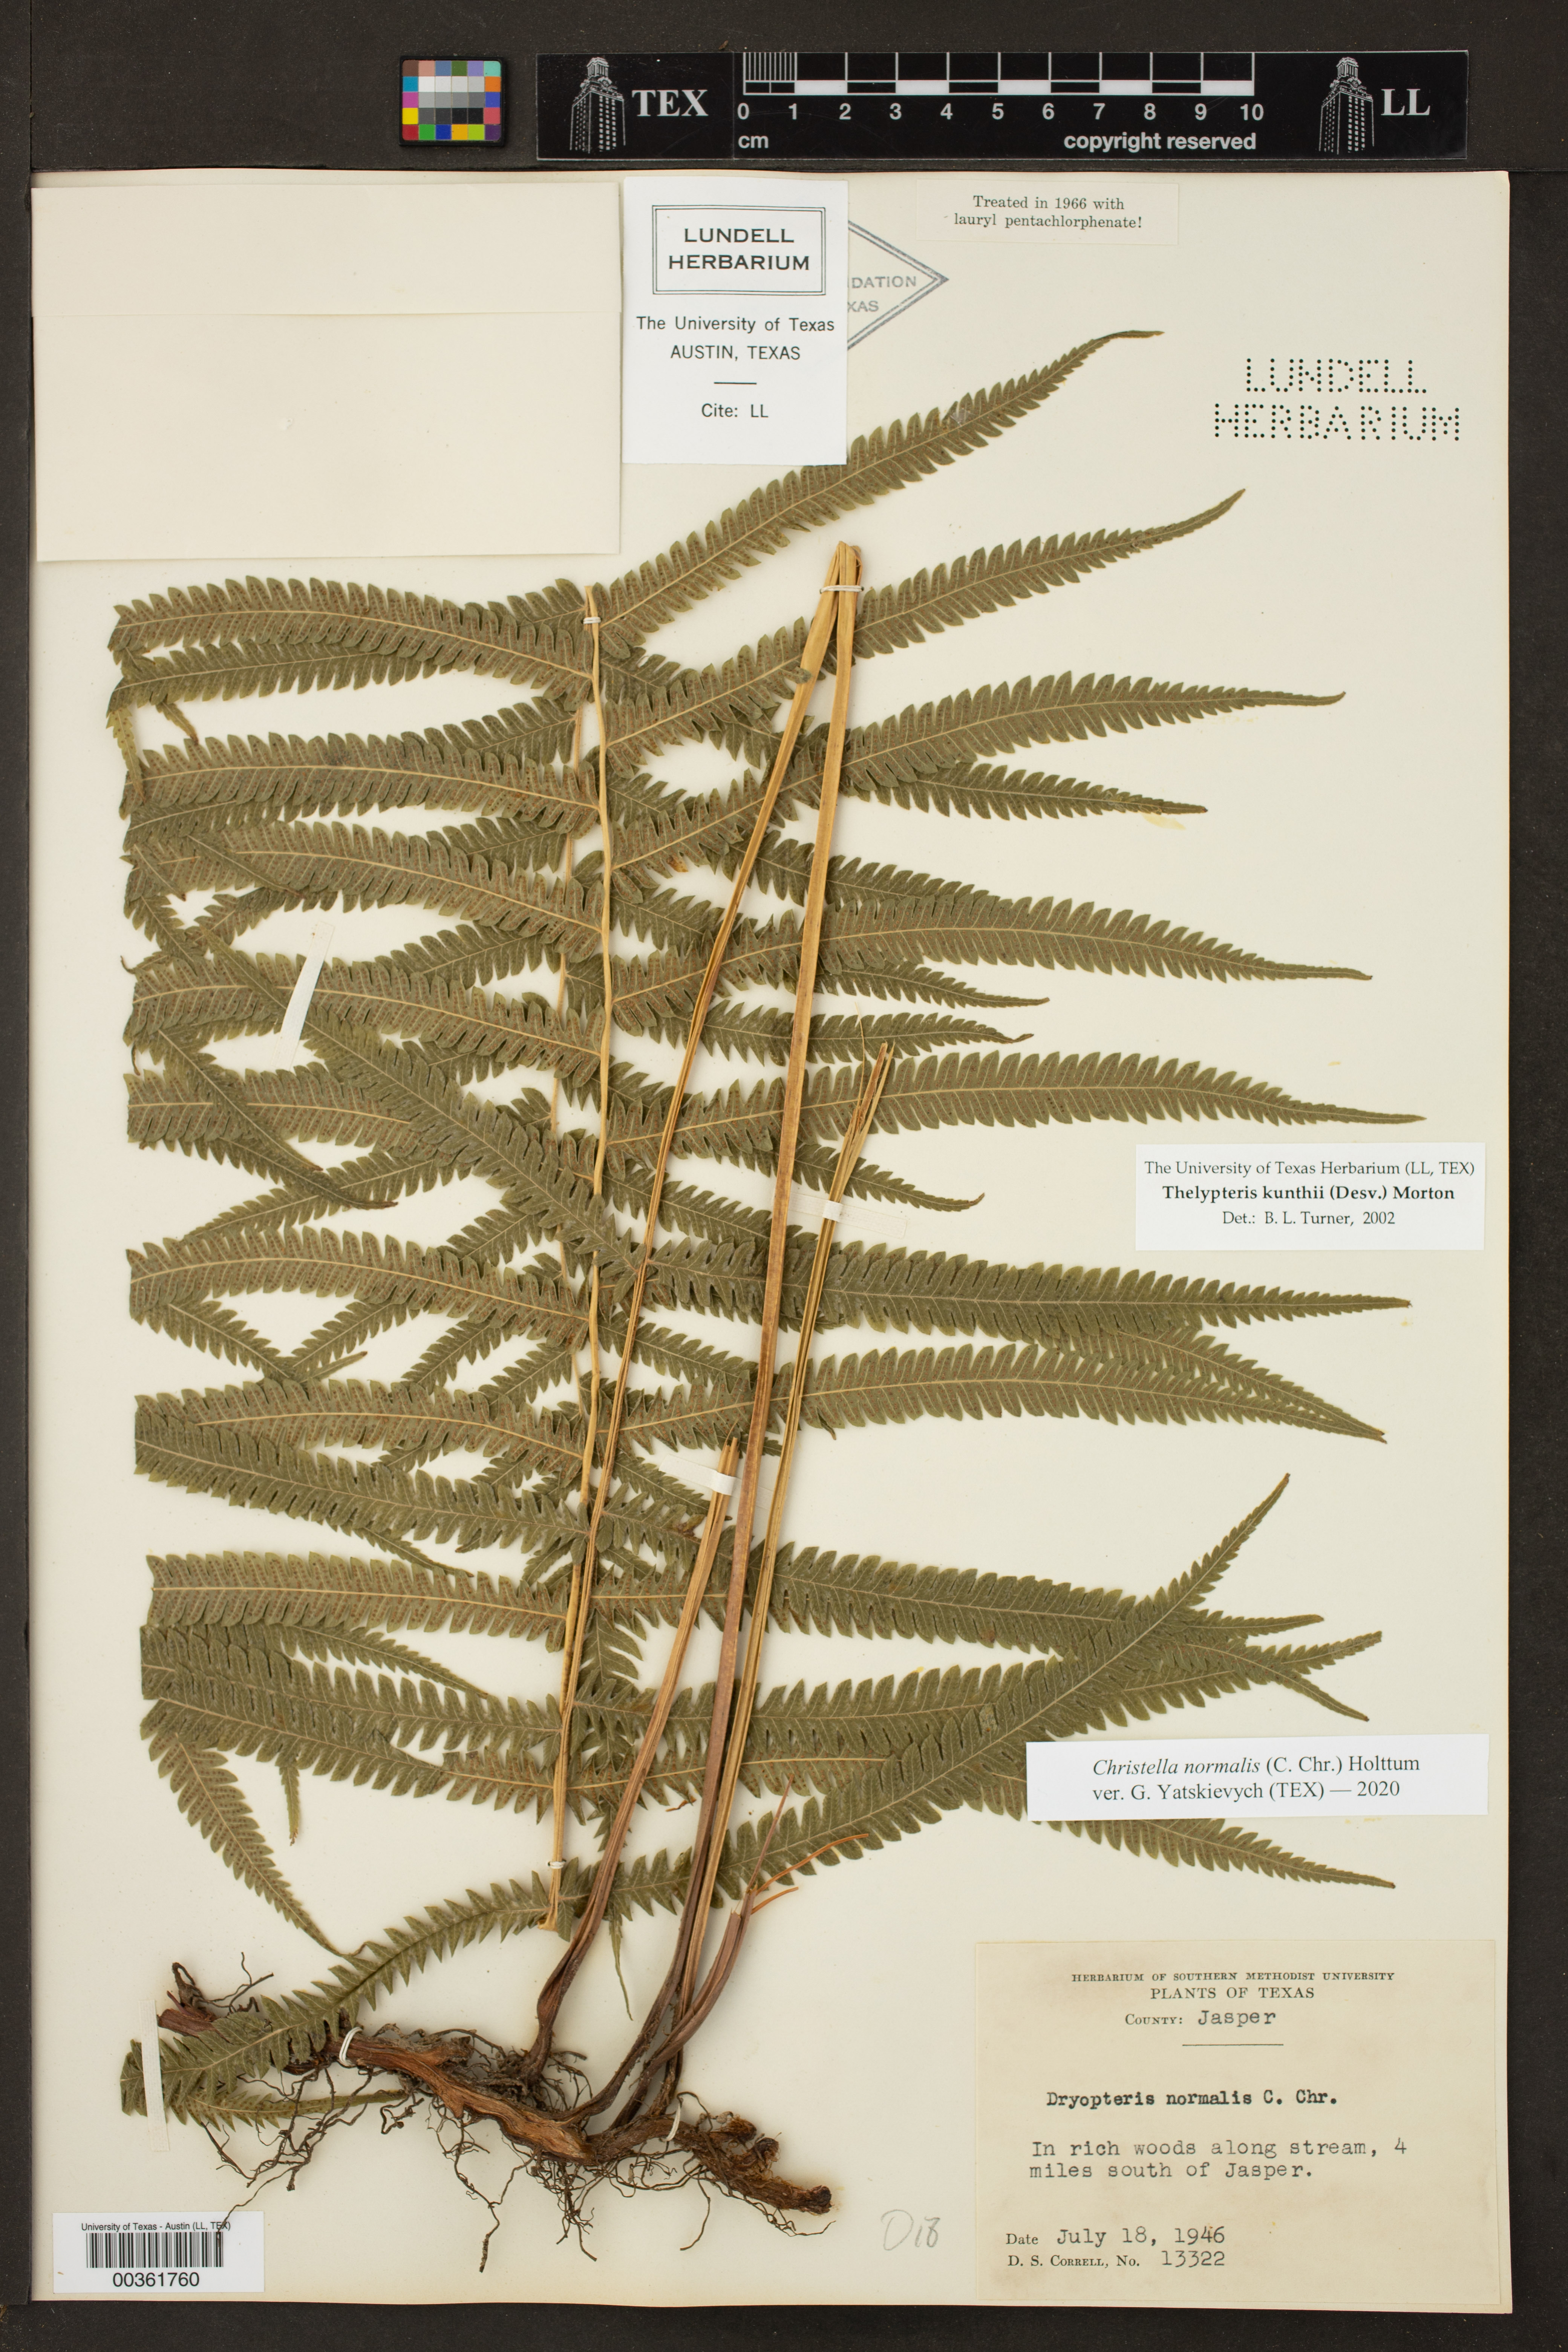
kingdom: Plantae
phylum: Tracheophyta
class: Polypodiopsida
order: Polypodiales
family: Thelypteridaceae
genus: Pelazoneuron
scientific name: Pelazoneuron kunthii
